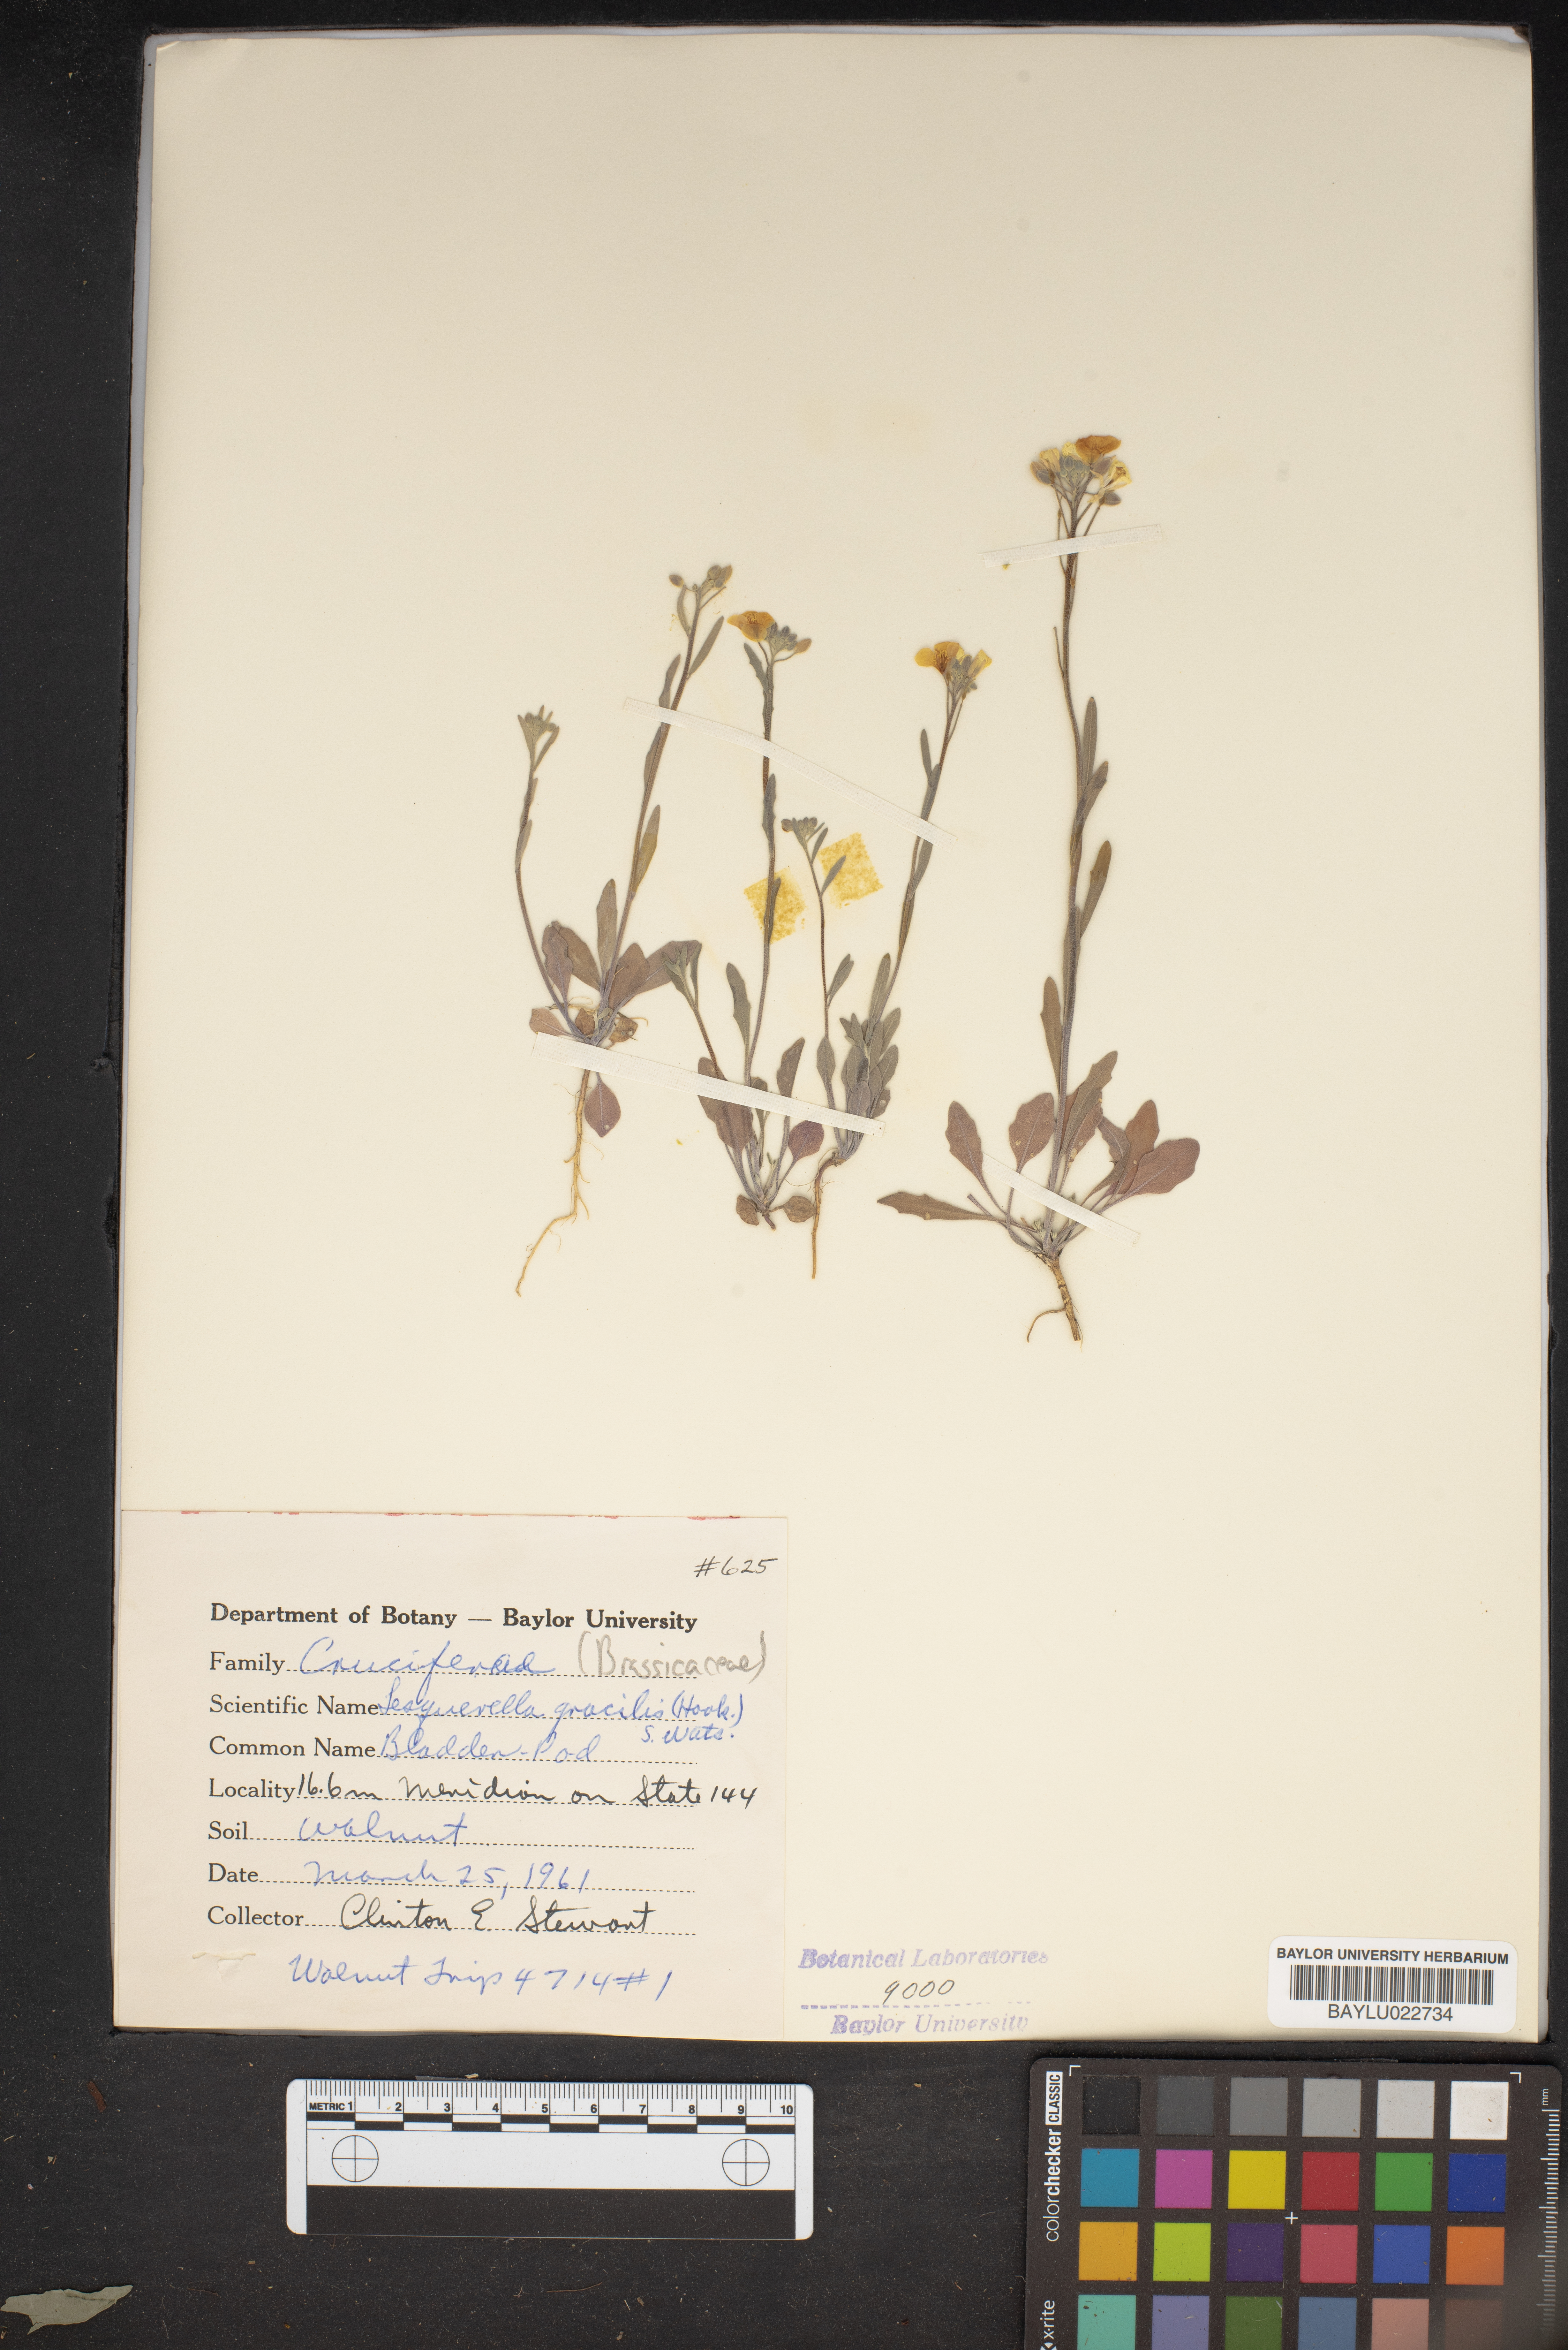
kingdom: Plantae
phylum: Tracheophyta
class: Magnoliopsida
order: Brassicales
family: Brassicaceae
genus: Physaria
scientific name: Physaria gracilis
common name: Spreading bladderpod
